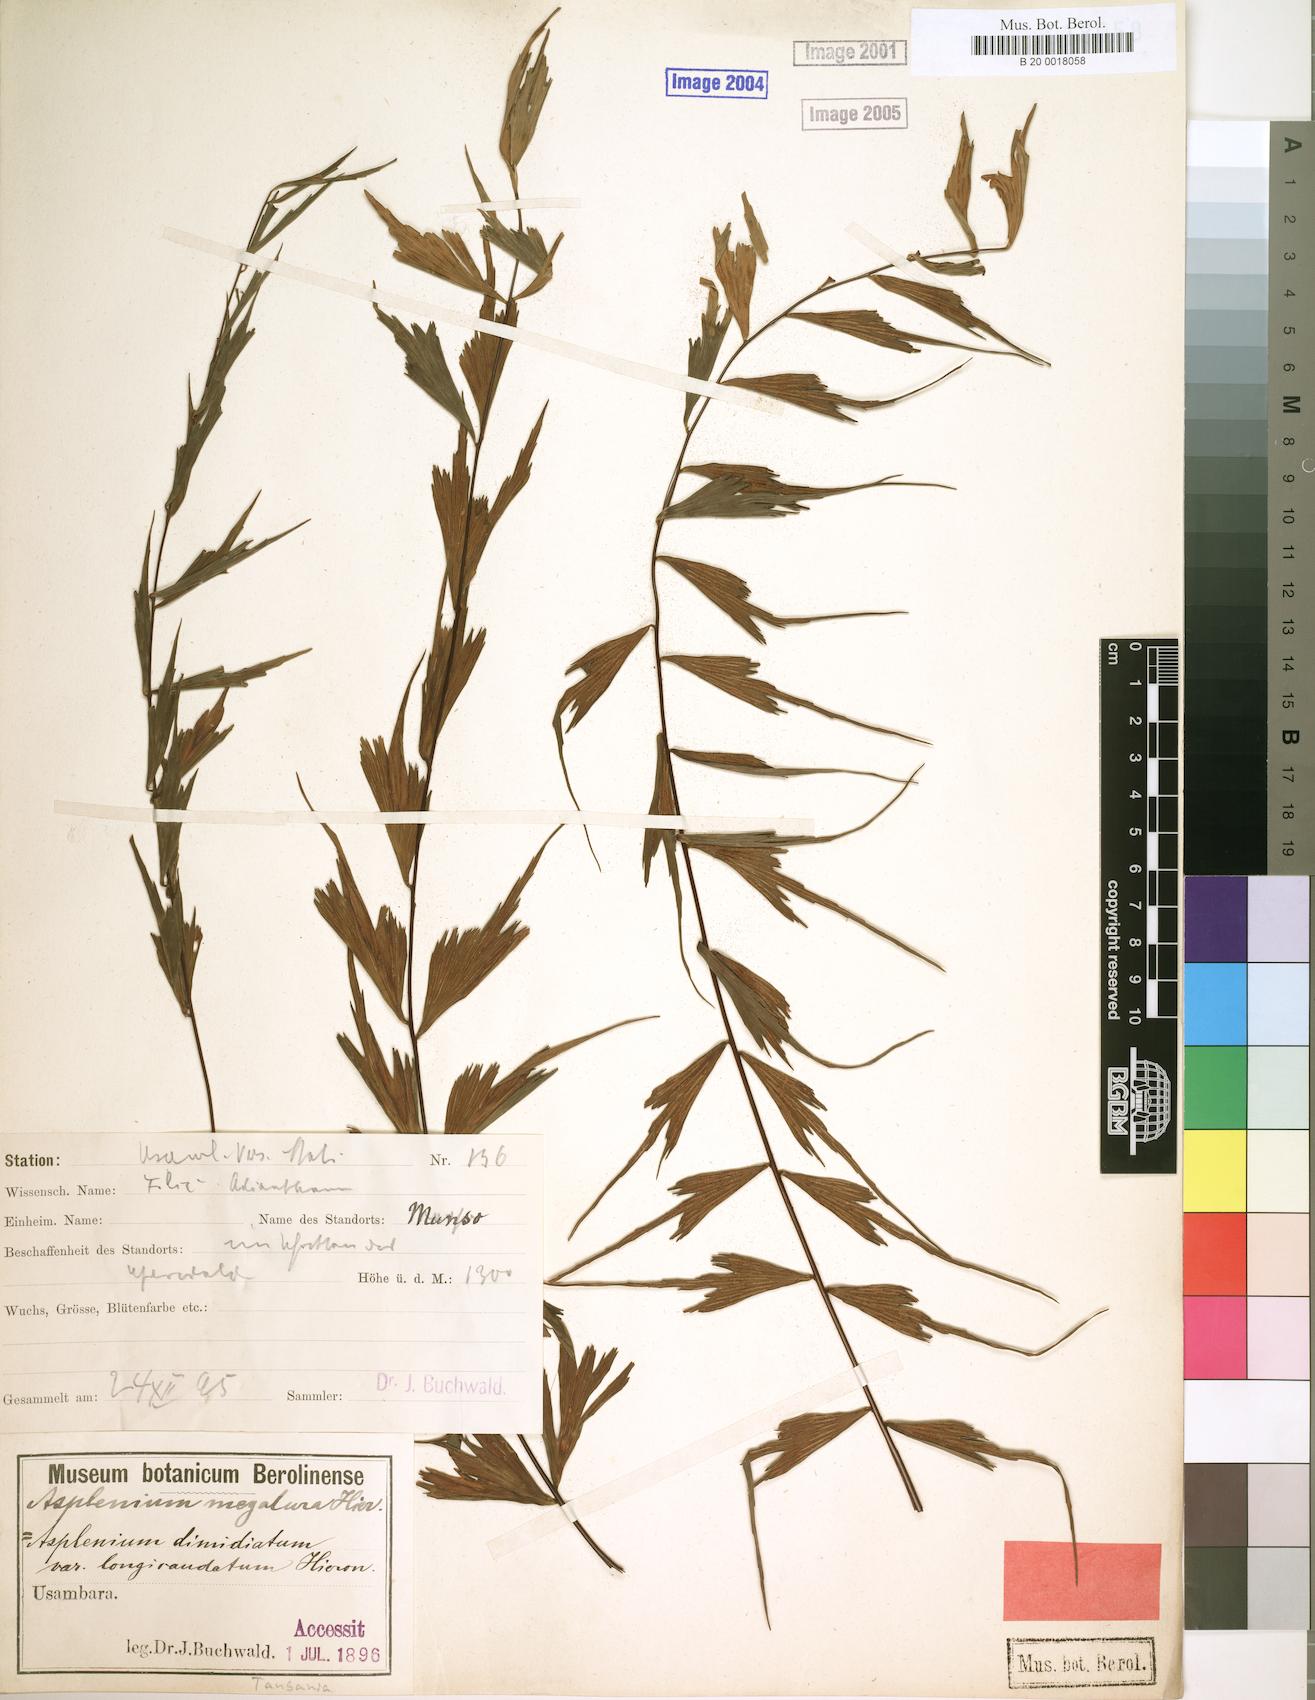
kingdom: Plantae
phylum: Tracheophyta
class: Polypodiopsida
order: Polypodiales
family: Aspleniaceae
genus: Asplenium
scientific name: Asplenium megalura
